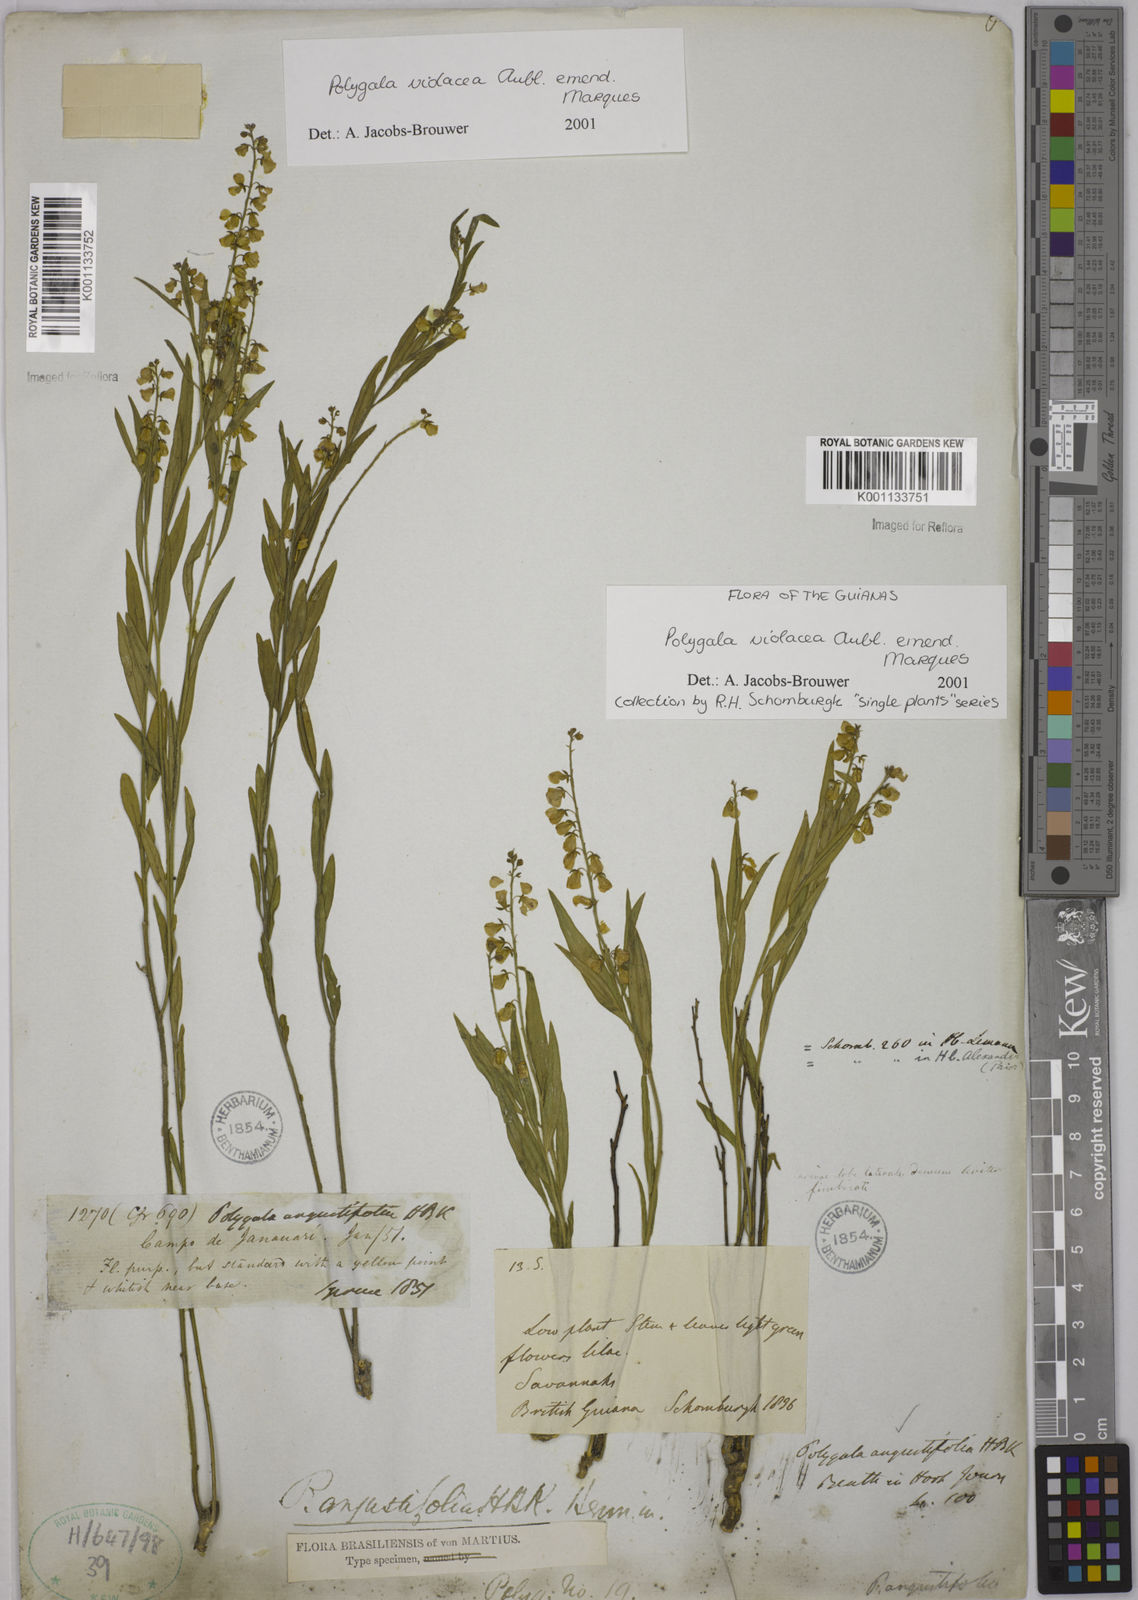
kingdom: Plantae
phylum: Tracheophyta
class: Magnoliopsida
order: Fabales
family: Polygalaceae
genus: Asemeia
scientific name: Asemeia monticola
